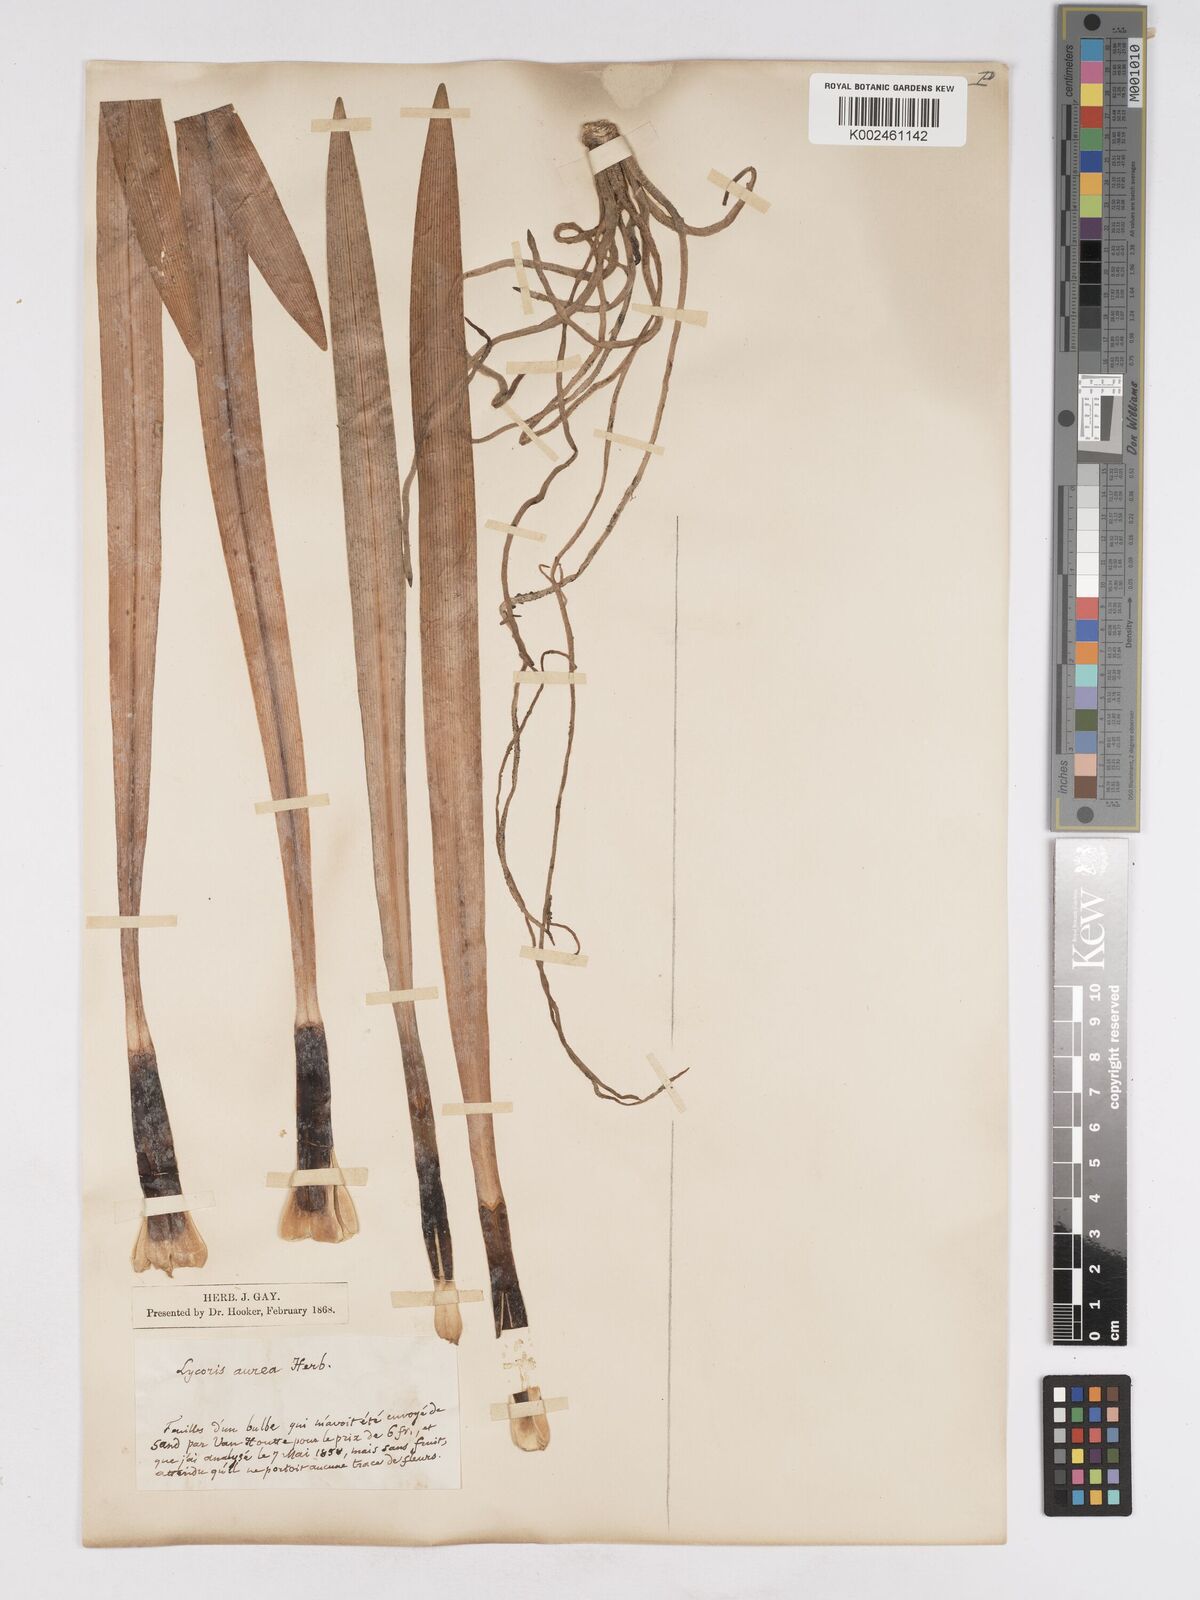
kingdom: Plantae
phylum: Tracheophyta
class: Liliopsida
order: Asparagales
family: Amaryllidaceae
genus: Lycoris
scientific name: Lycoris aurea
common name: Golden hurricane-lily
